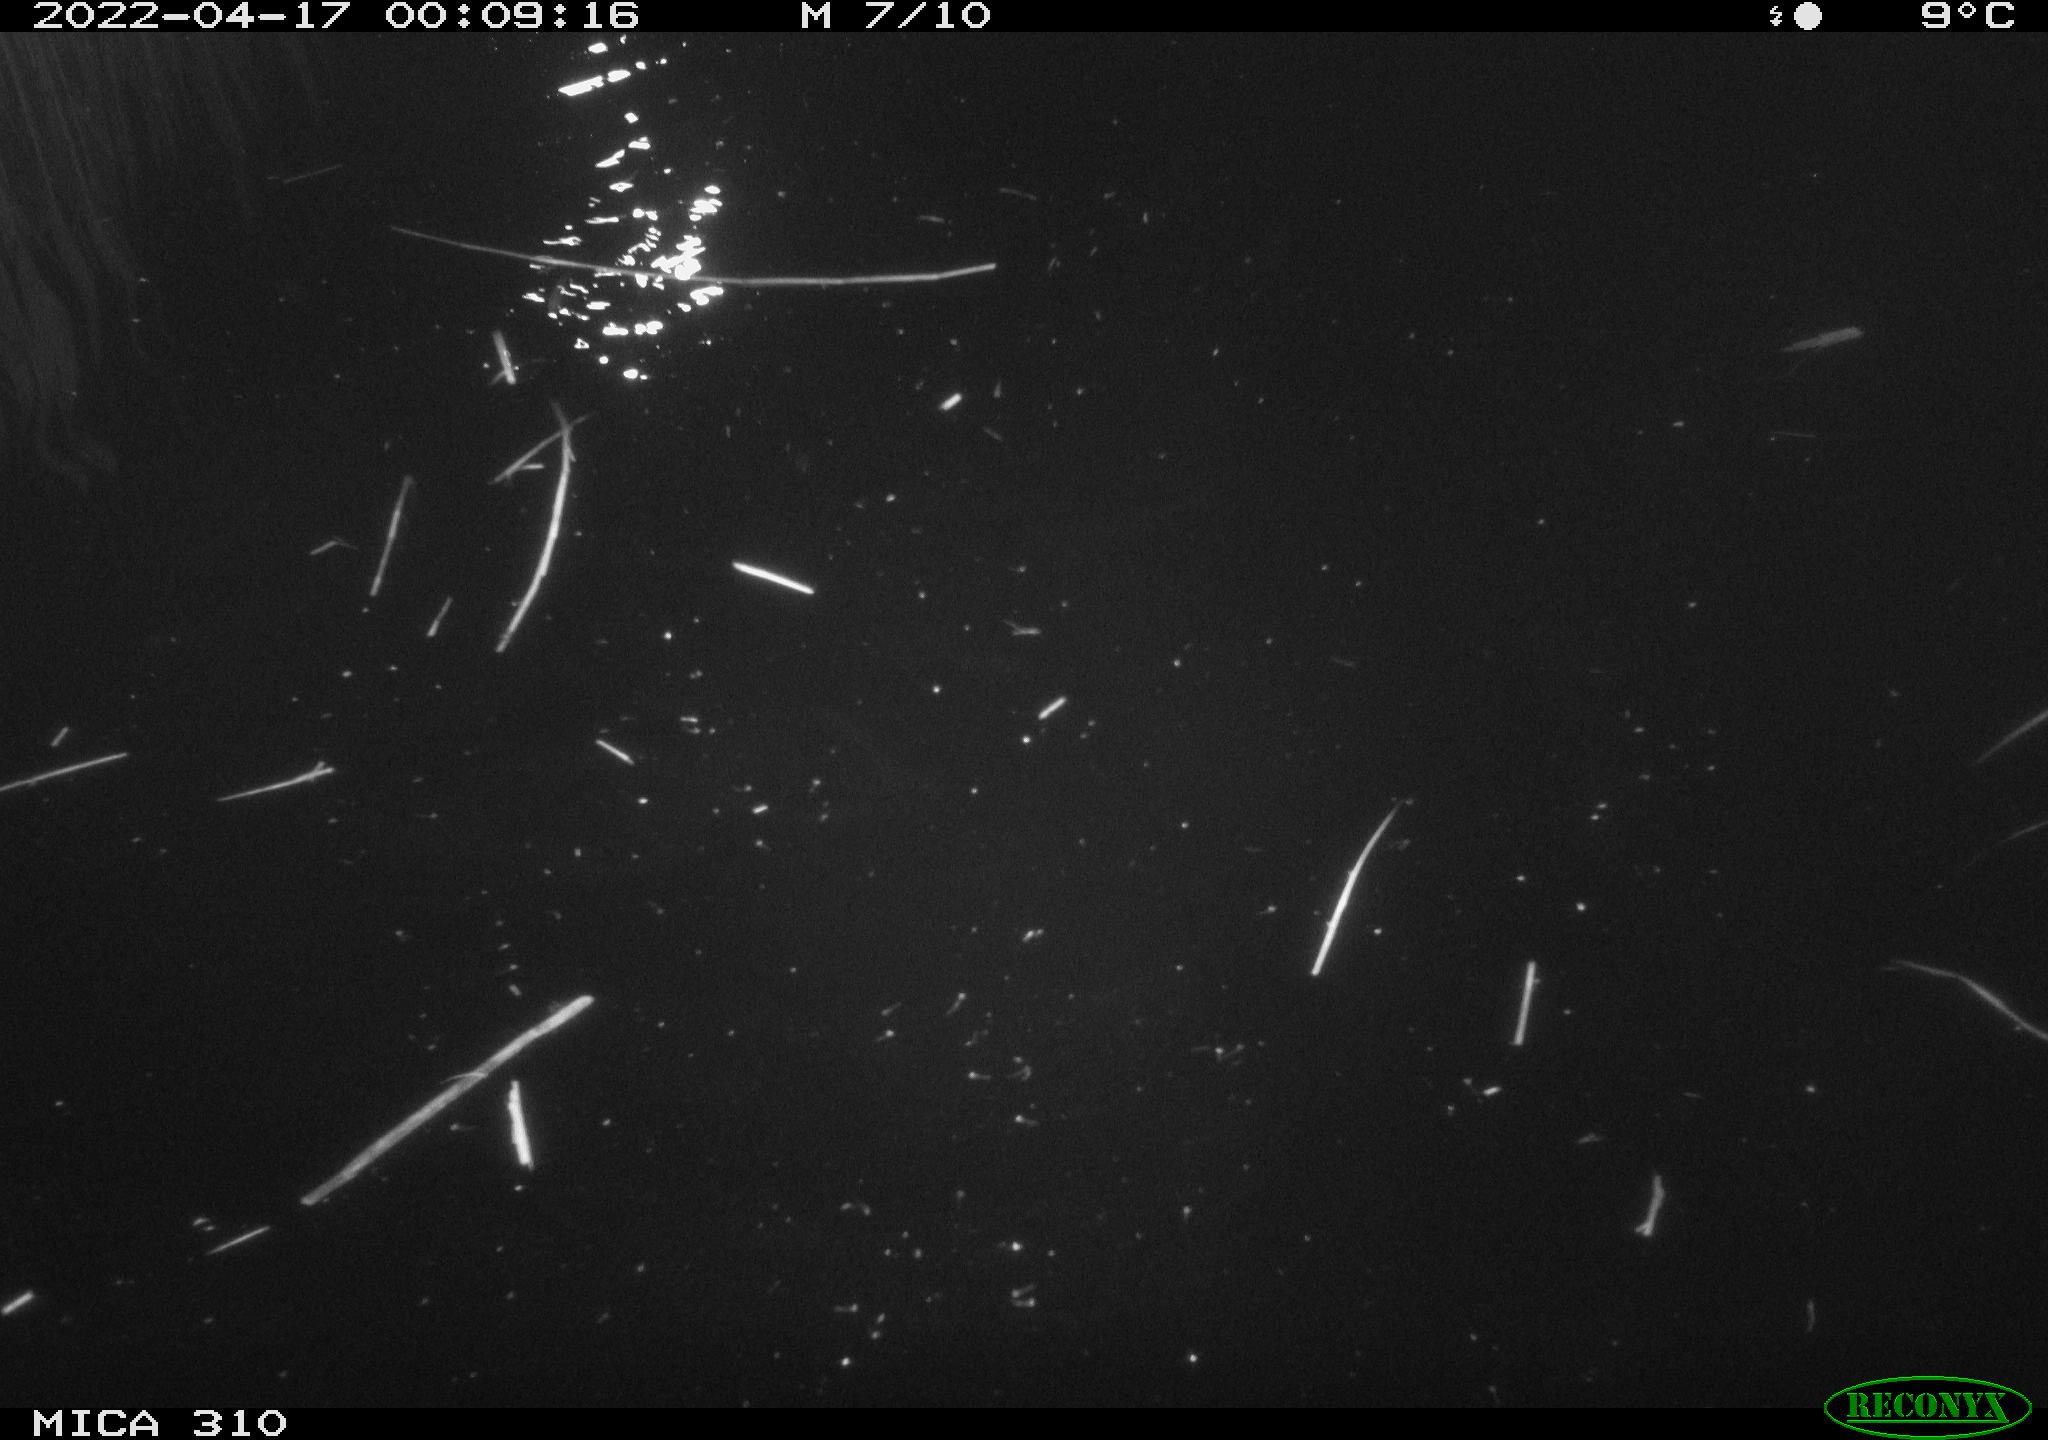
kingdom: Animalia
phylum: Chordata
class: Aves
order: Anseriformes
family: Anatidae
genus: Anas
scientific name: Anas platyrhynchos
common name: Mallard
